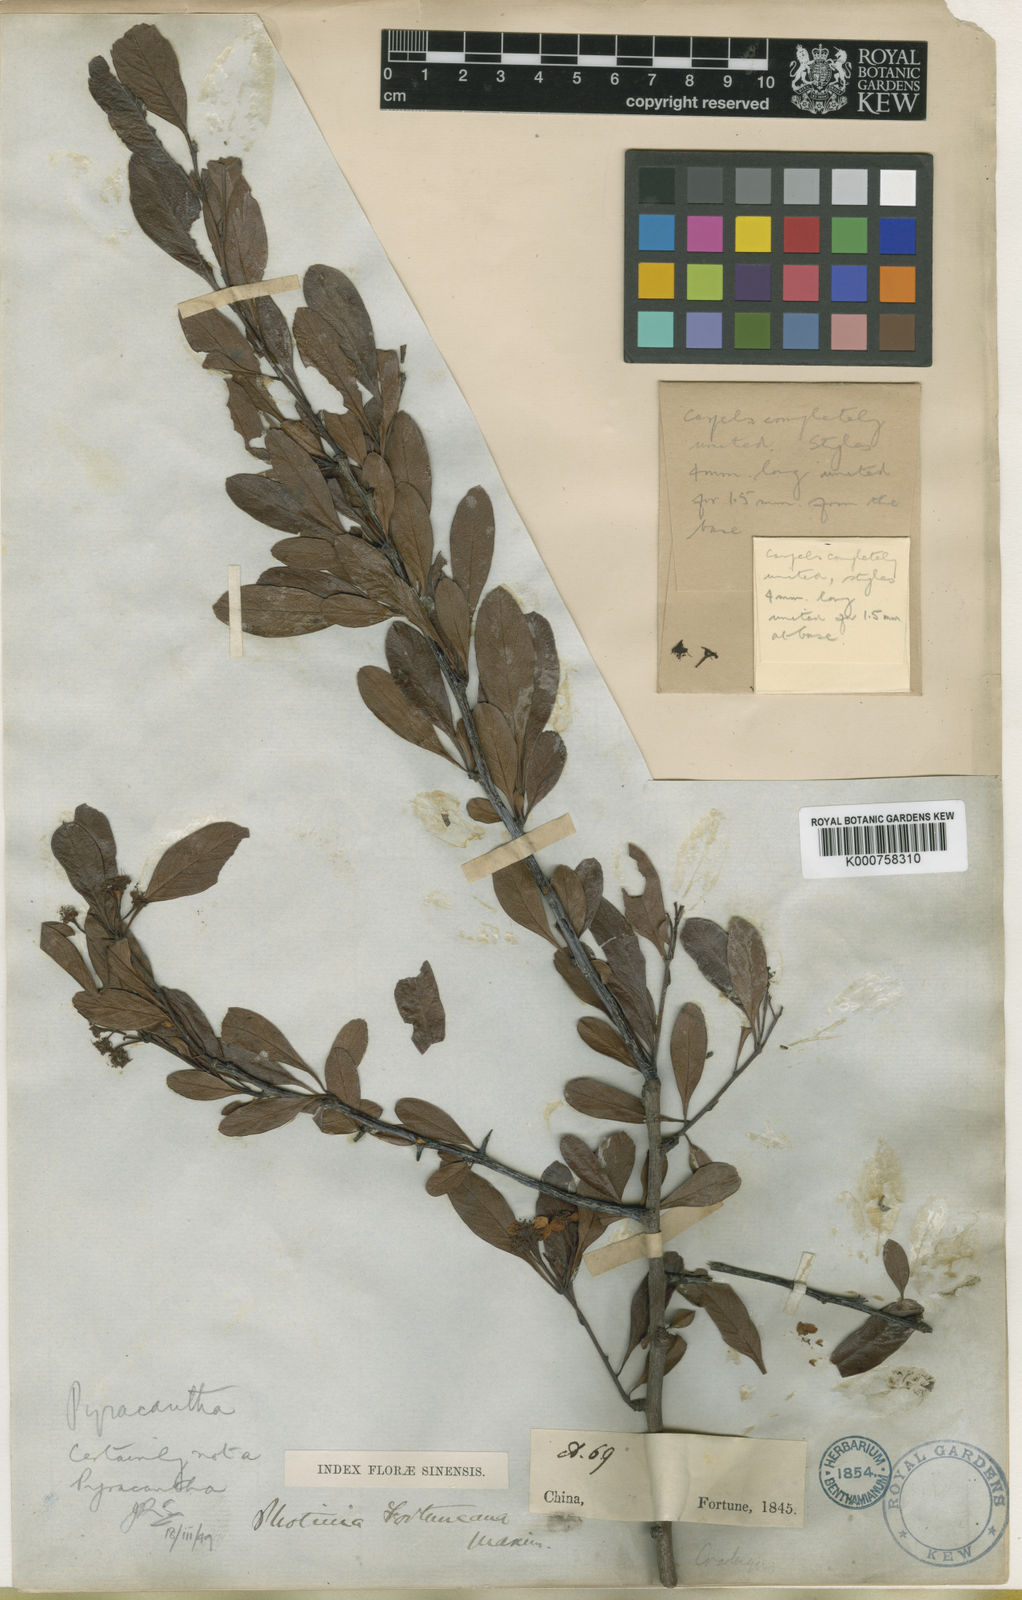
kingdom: Plantae
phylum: Tracheophyta
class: Magnoliopsida
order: Rosales
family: Rosaceae
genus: Pyracantha
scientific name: Pyracantha fortuneana
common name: Chinese firethorn
